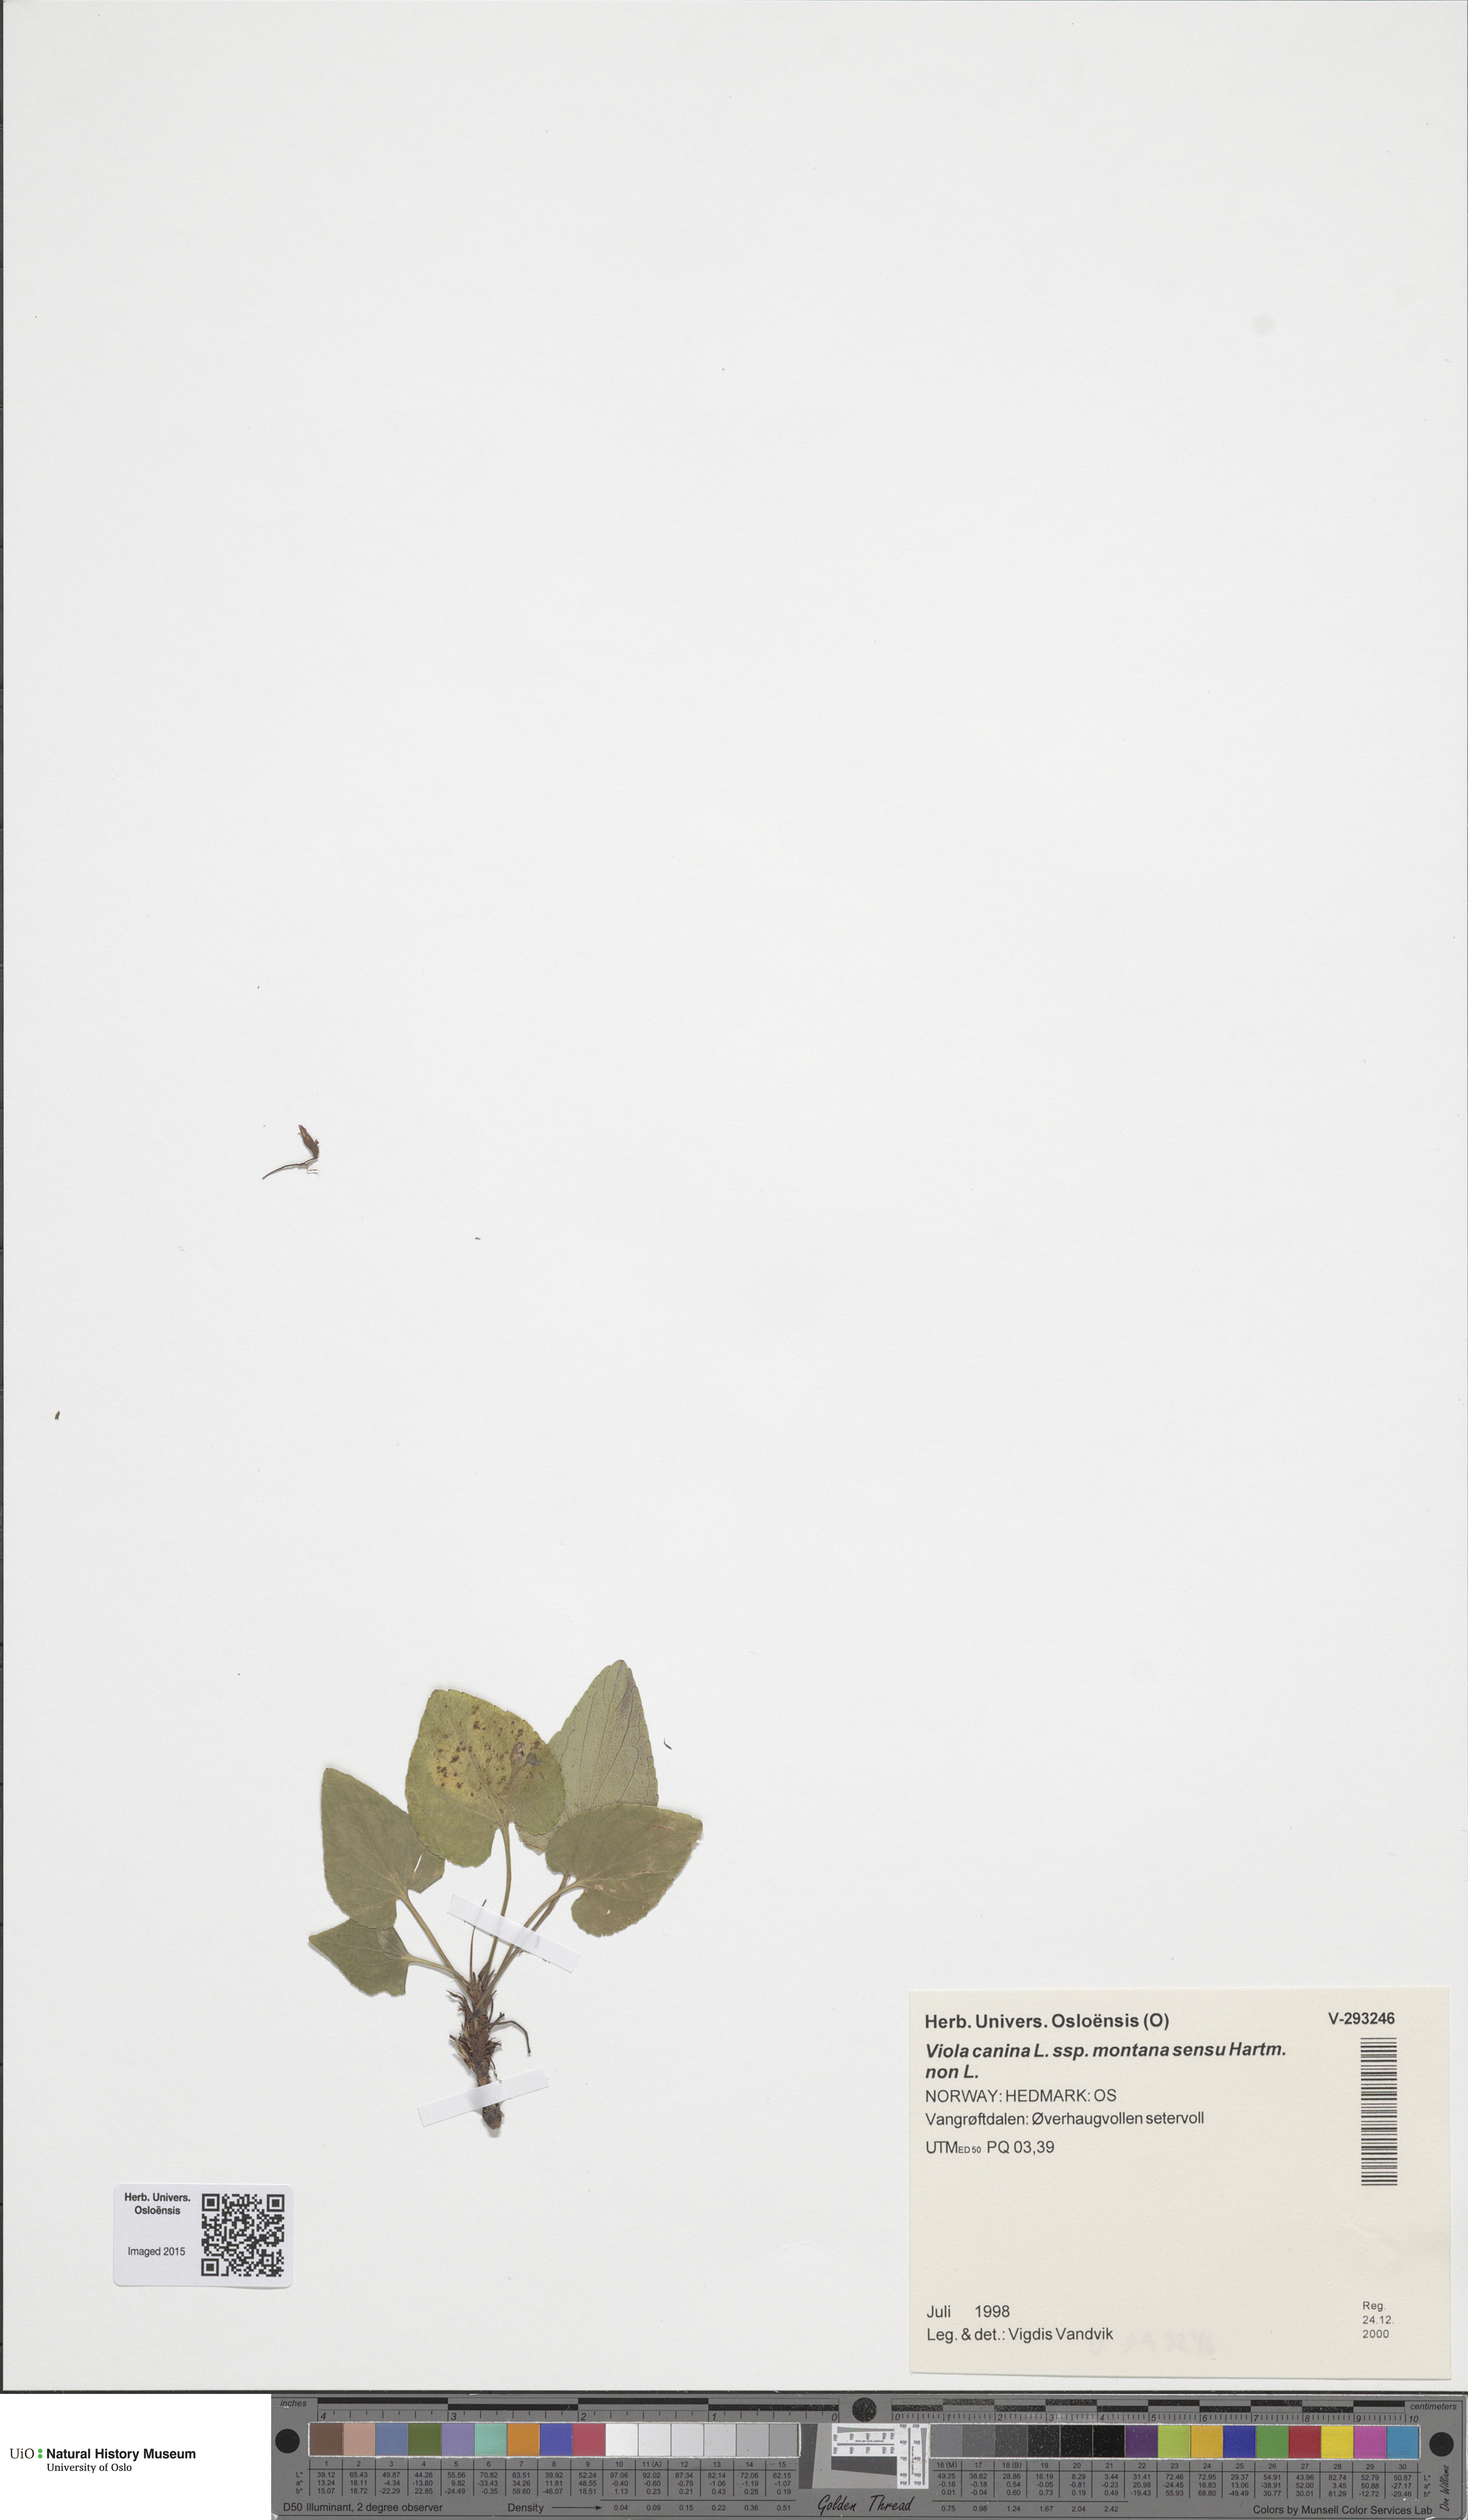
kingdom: Plantae
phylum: Tracheophyta
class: Magnoliopsida
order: Malpighiales
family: Violaceae
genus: Viola
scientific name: Viola ruppii
